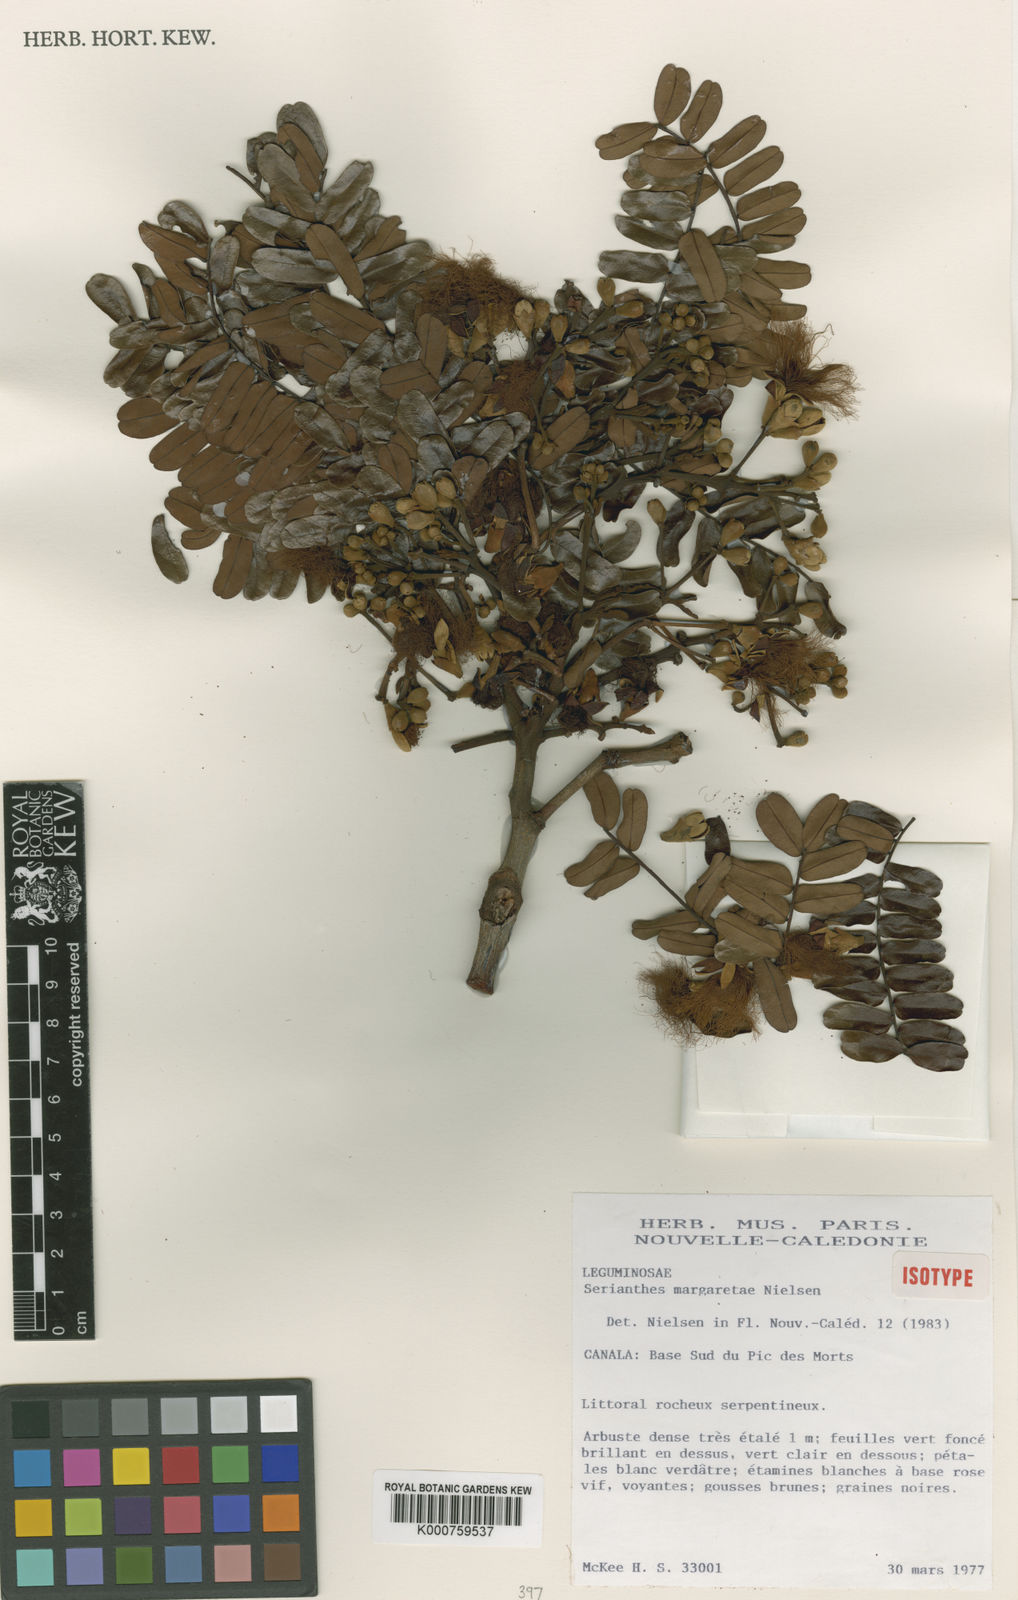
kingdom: Plantae
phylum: Tracheophyta
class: Magnoliopsida
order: Fabales
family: Fabaceae
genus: Serianthes
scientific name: Serianthes margaretiae
